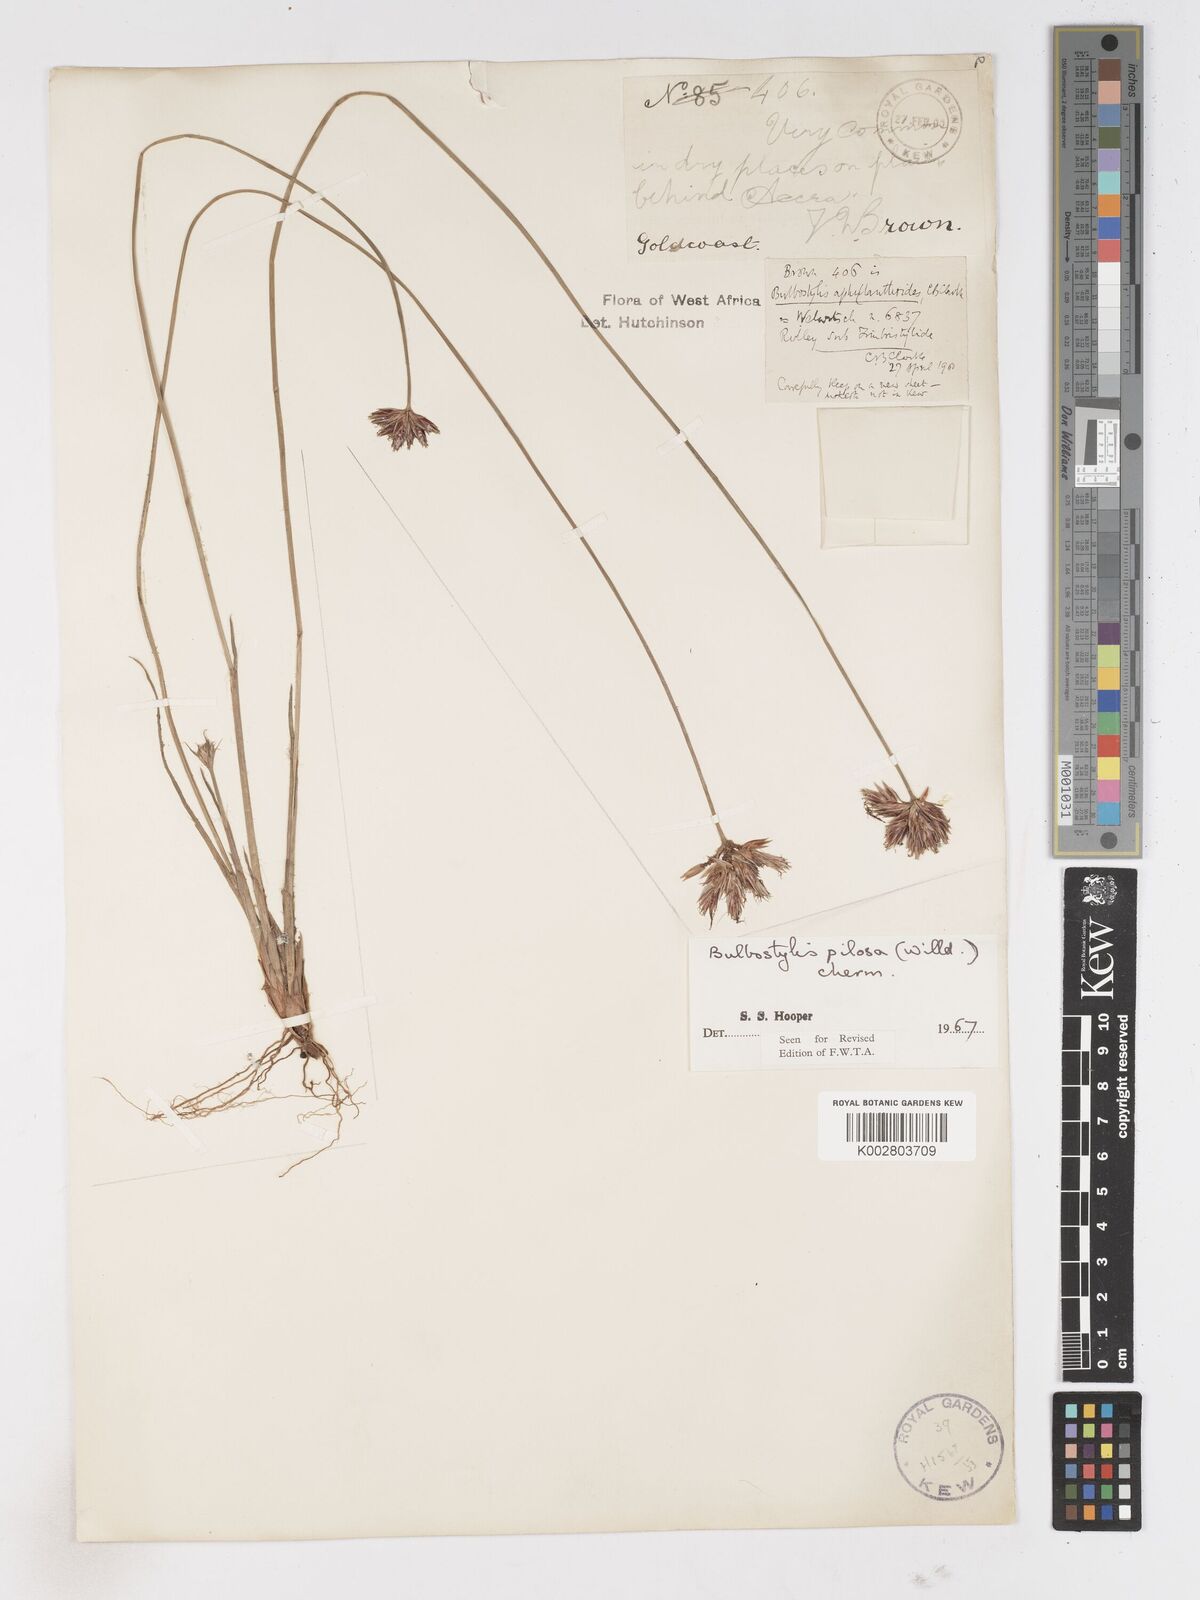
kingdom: Plantae
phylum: Tracheophyta
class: Liliopsida
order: Poales
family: Cyperaceae
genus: Bulbostylis
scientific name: Bulbostylis pilosa
